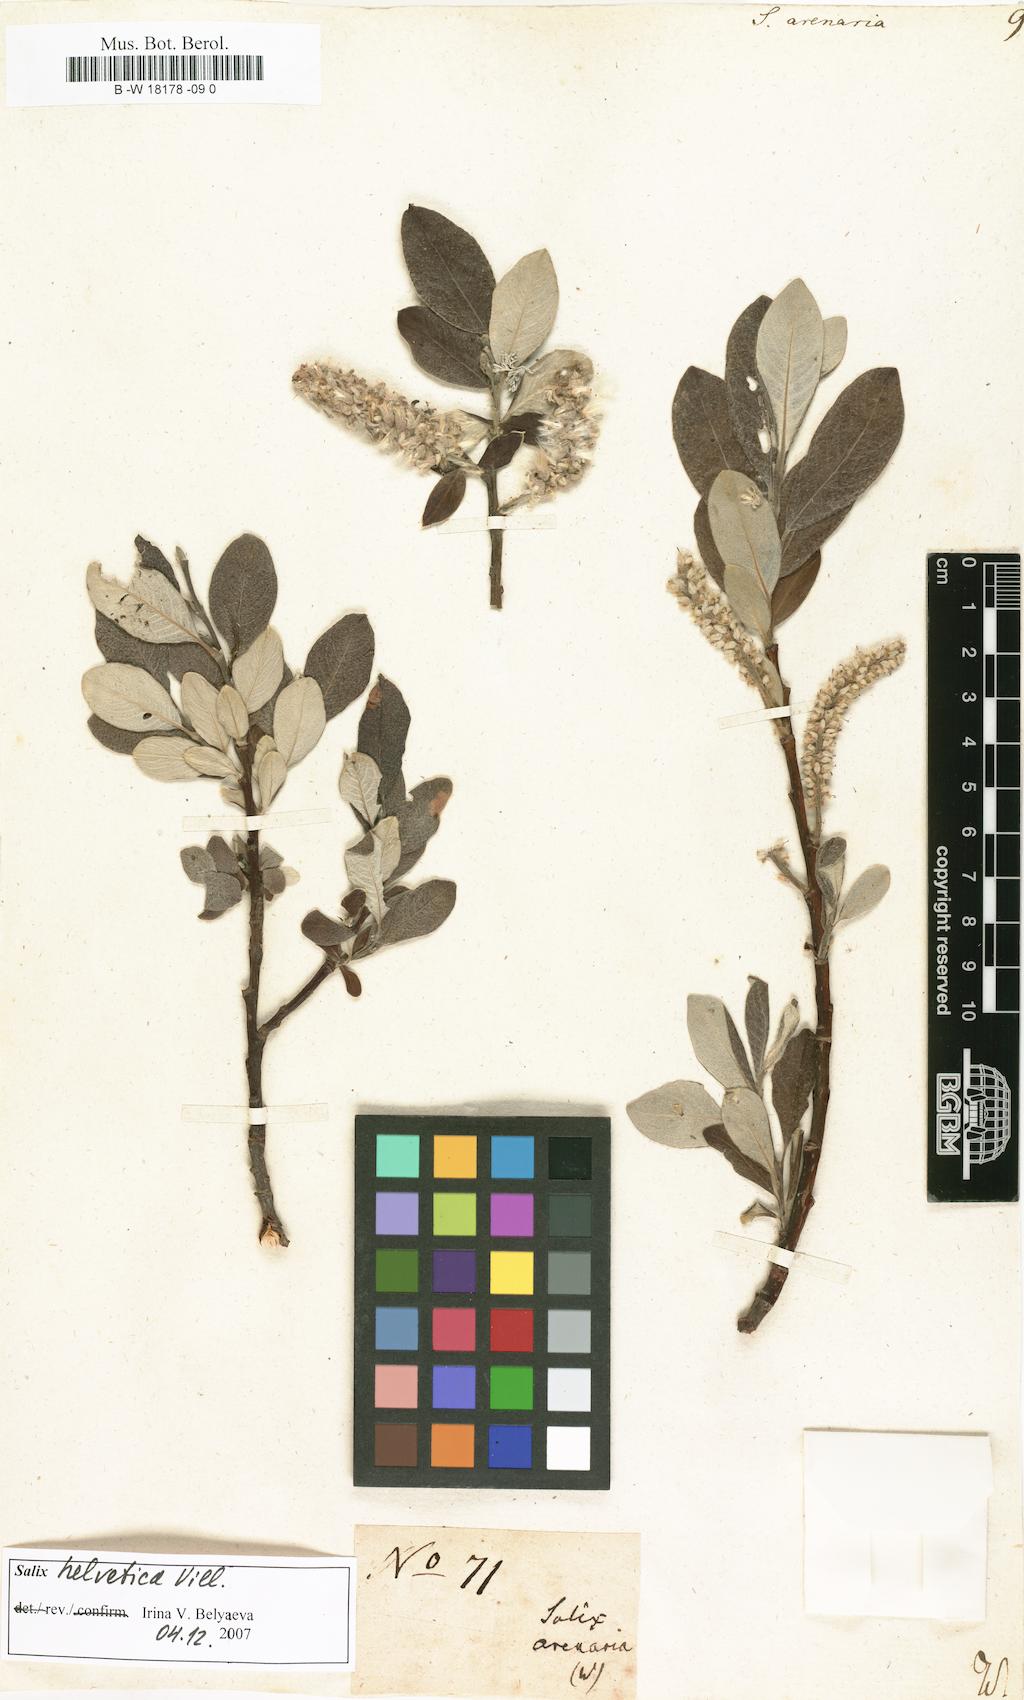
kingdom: Plantae
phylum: Tracheophyta
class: Magnoliopsida
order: Malpighiales
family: Salicaceae
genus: Salix
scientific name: Salix repens
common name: Creeping willow
